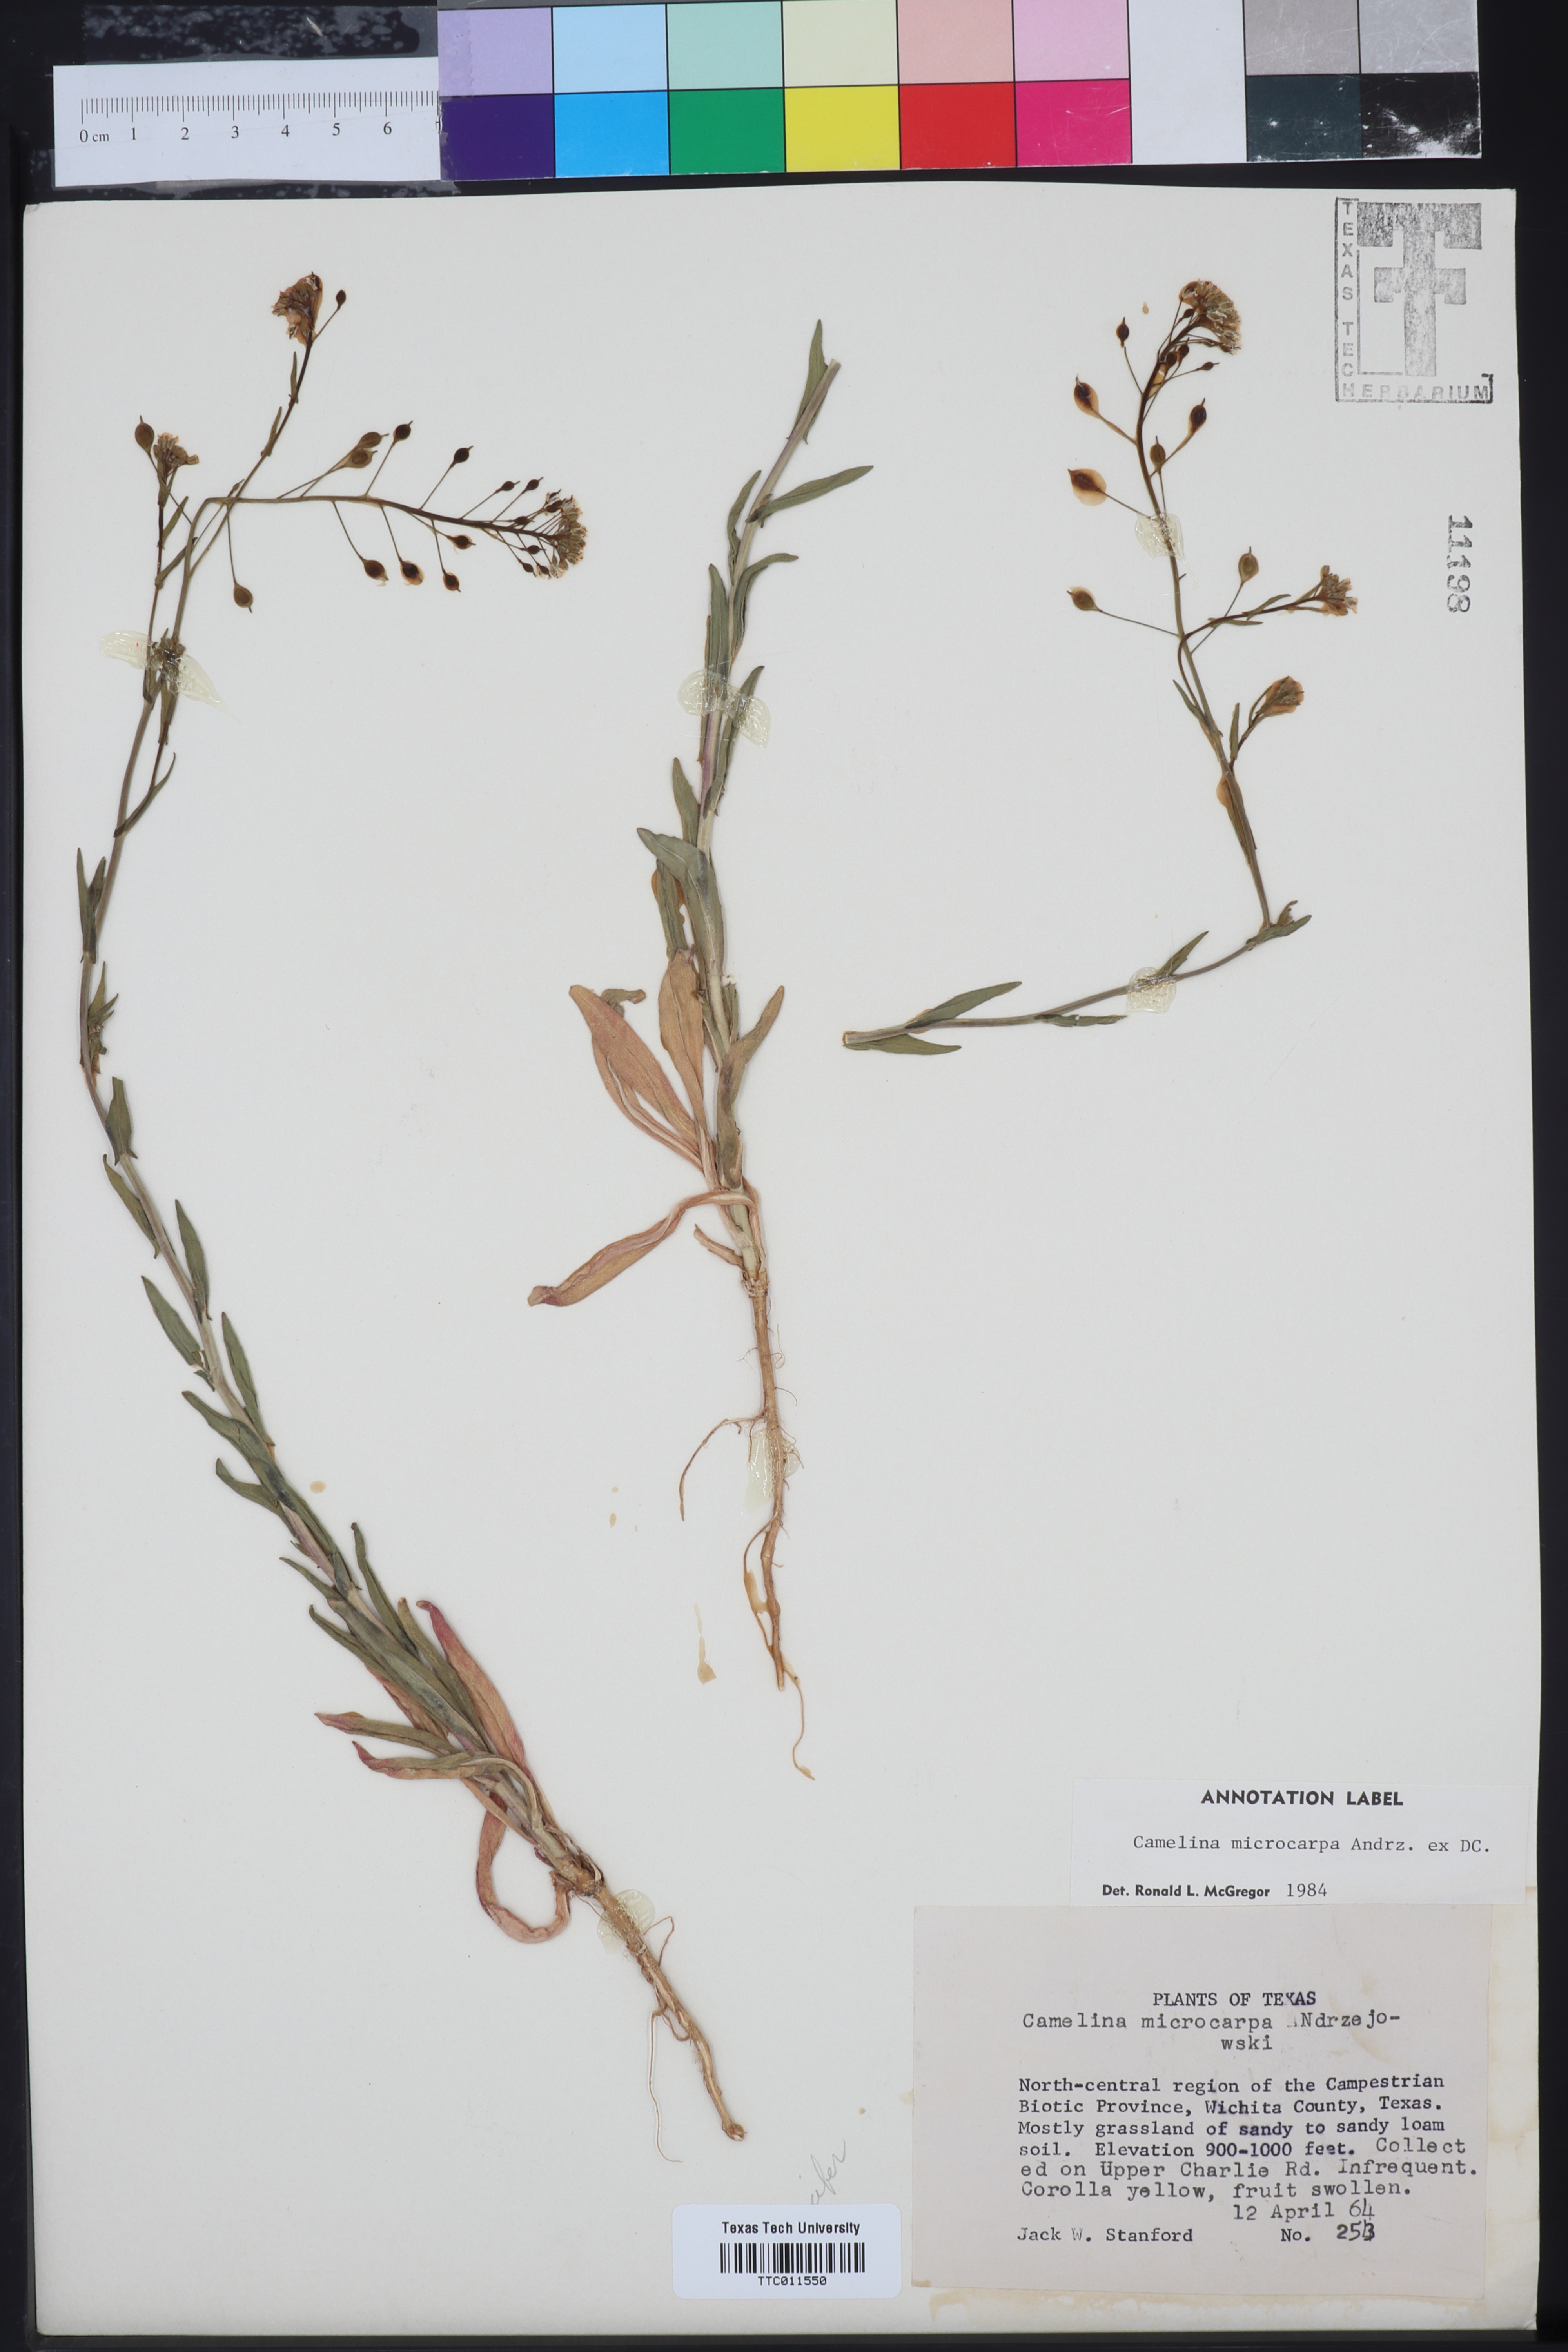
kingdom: Plantae
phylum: Tracheophyta
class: Magnoliopsida
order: Brassicales
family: Brassicaceae
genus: Camelina
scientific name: Camelina microcarpa
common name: Lesser gold-of-pleasure
